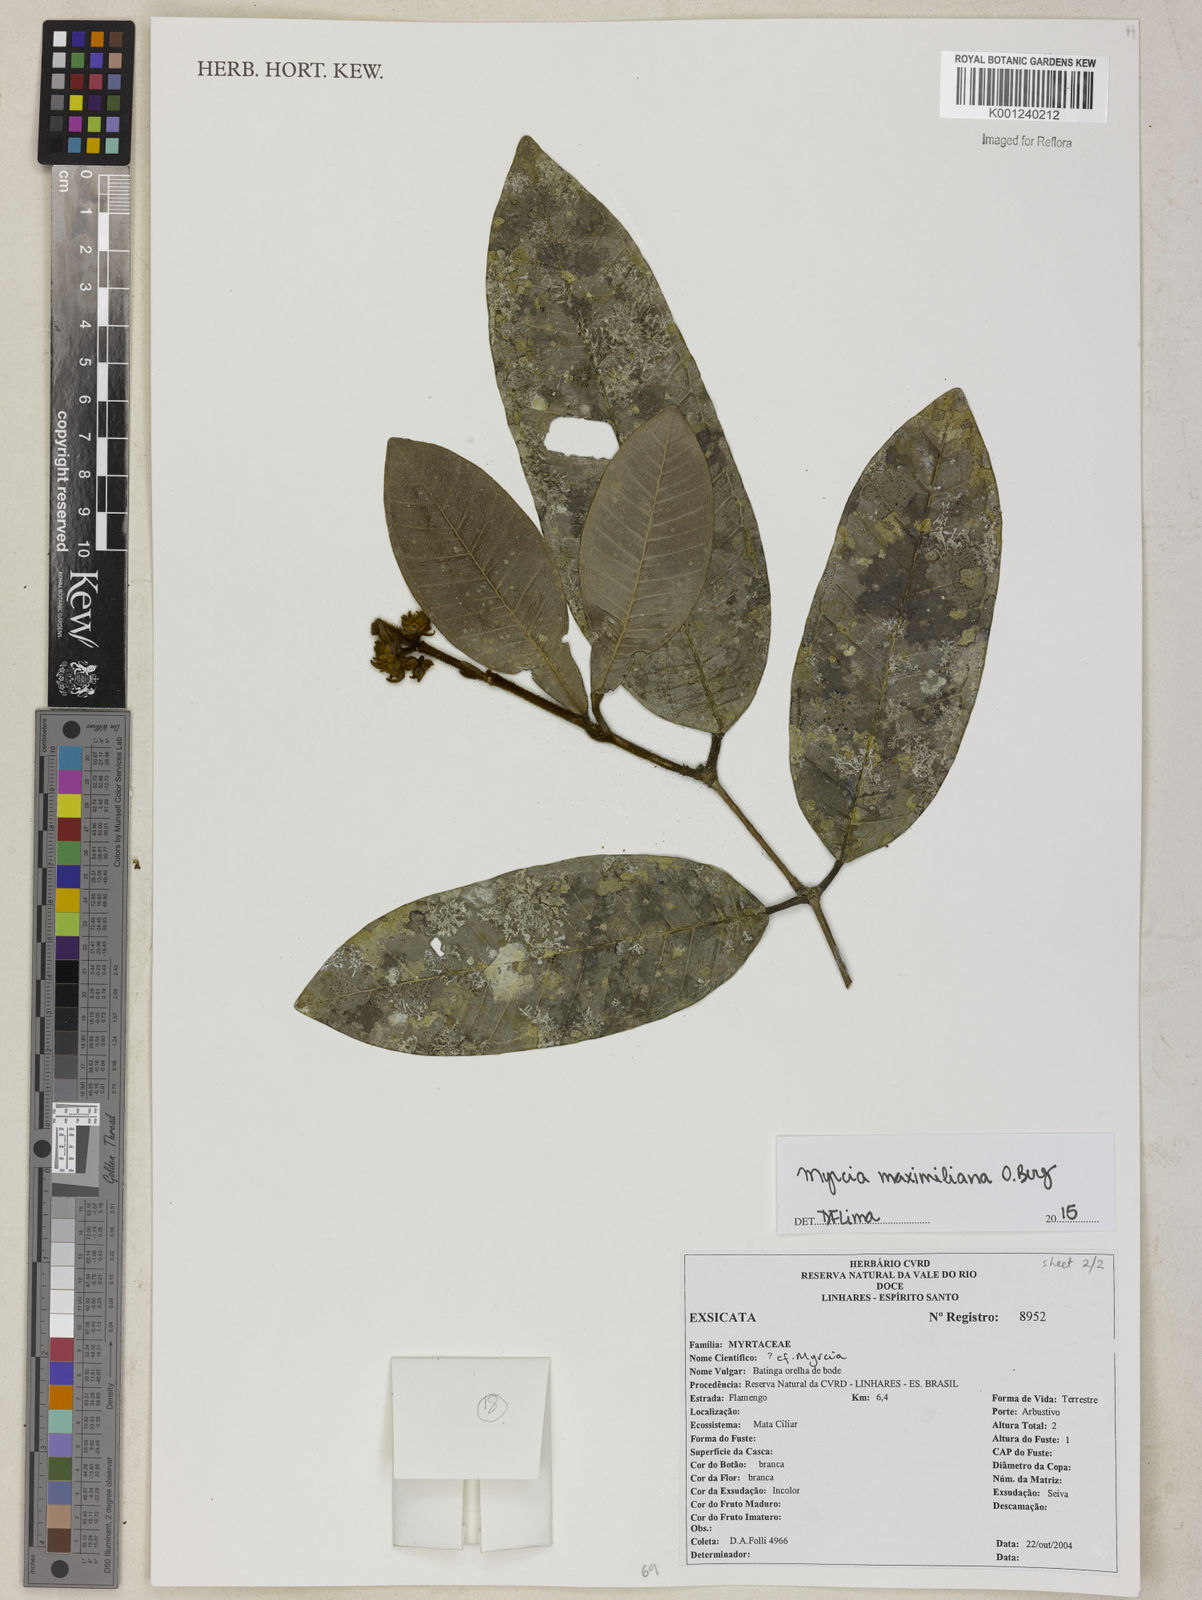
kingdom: Plantae
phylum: Tracheophyta
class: Magnoliopsida
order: Myrtales
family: Myrtaceae
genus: Myrcia
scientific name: Myrcia maximiliana
